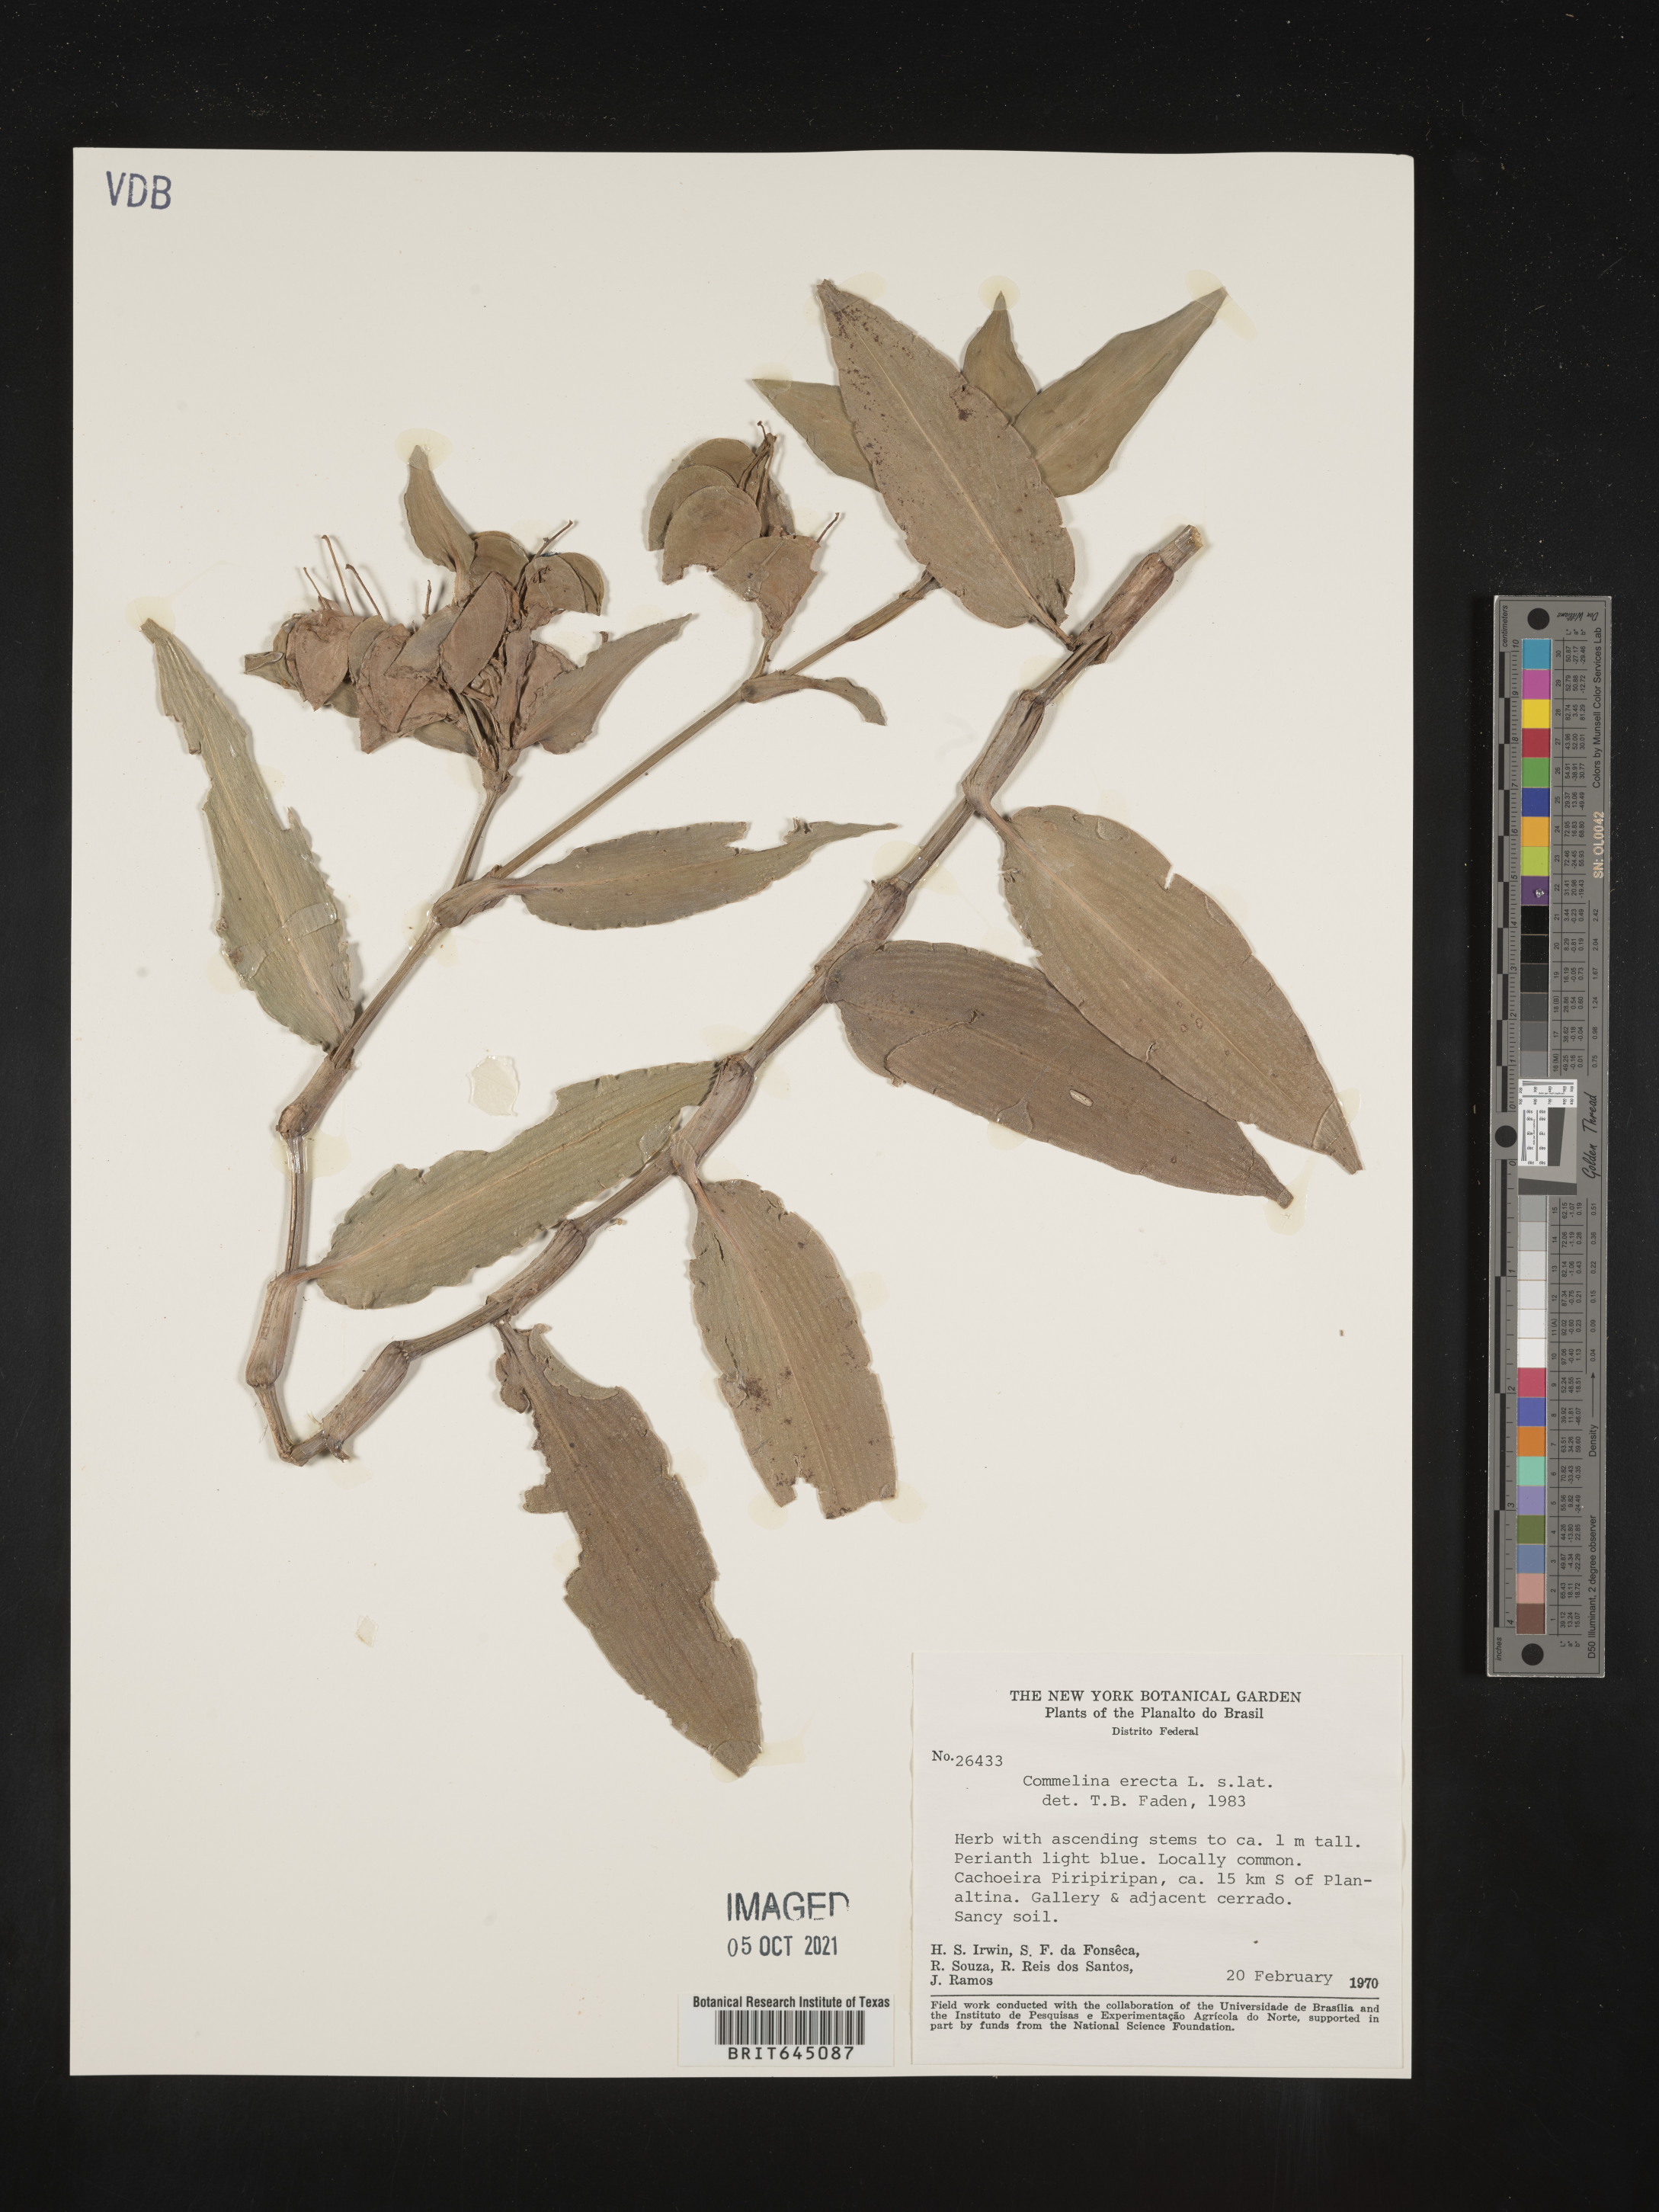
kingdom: Plantae
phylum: Tracheophyta
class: Liliopsida
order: Commelinales
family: Commelinaceae
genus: Commelina
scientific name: Commelina erecta
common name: Blousel blommetjie
